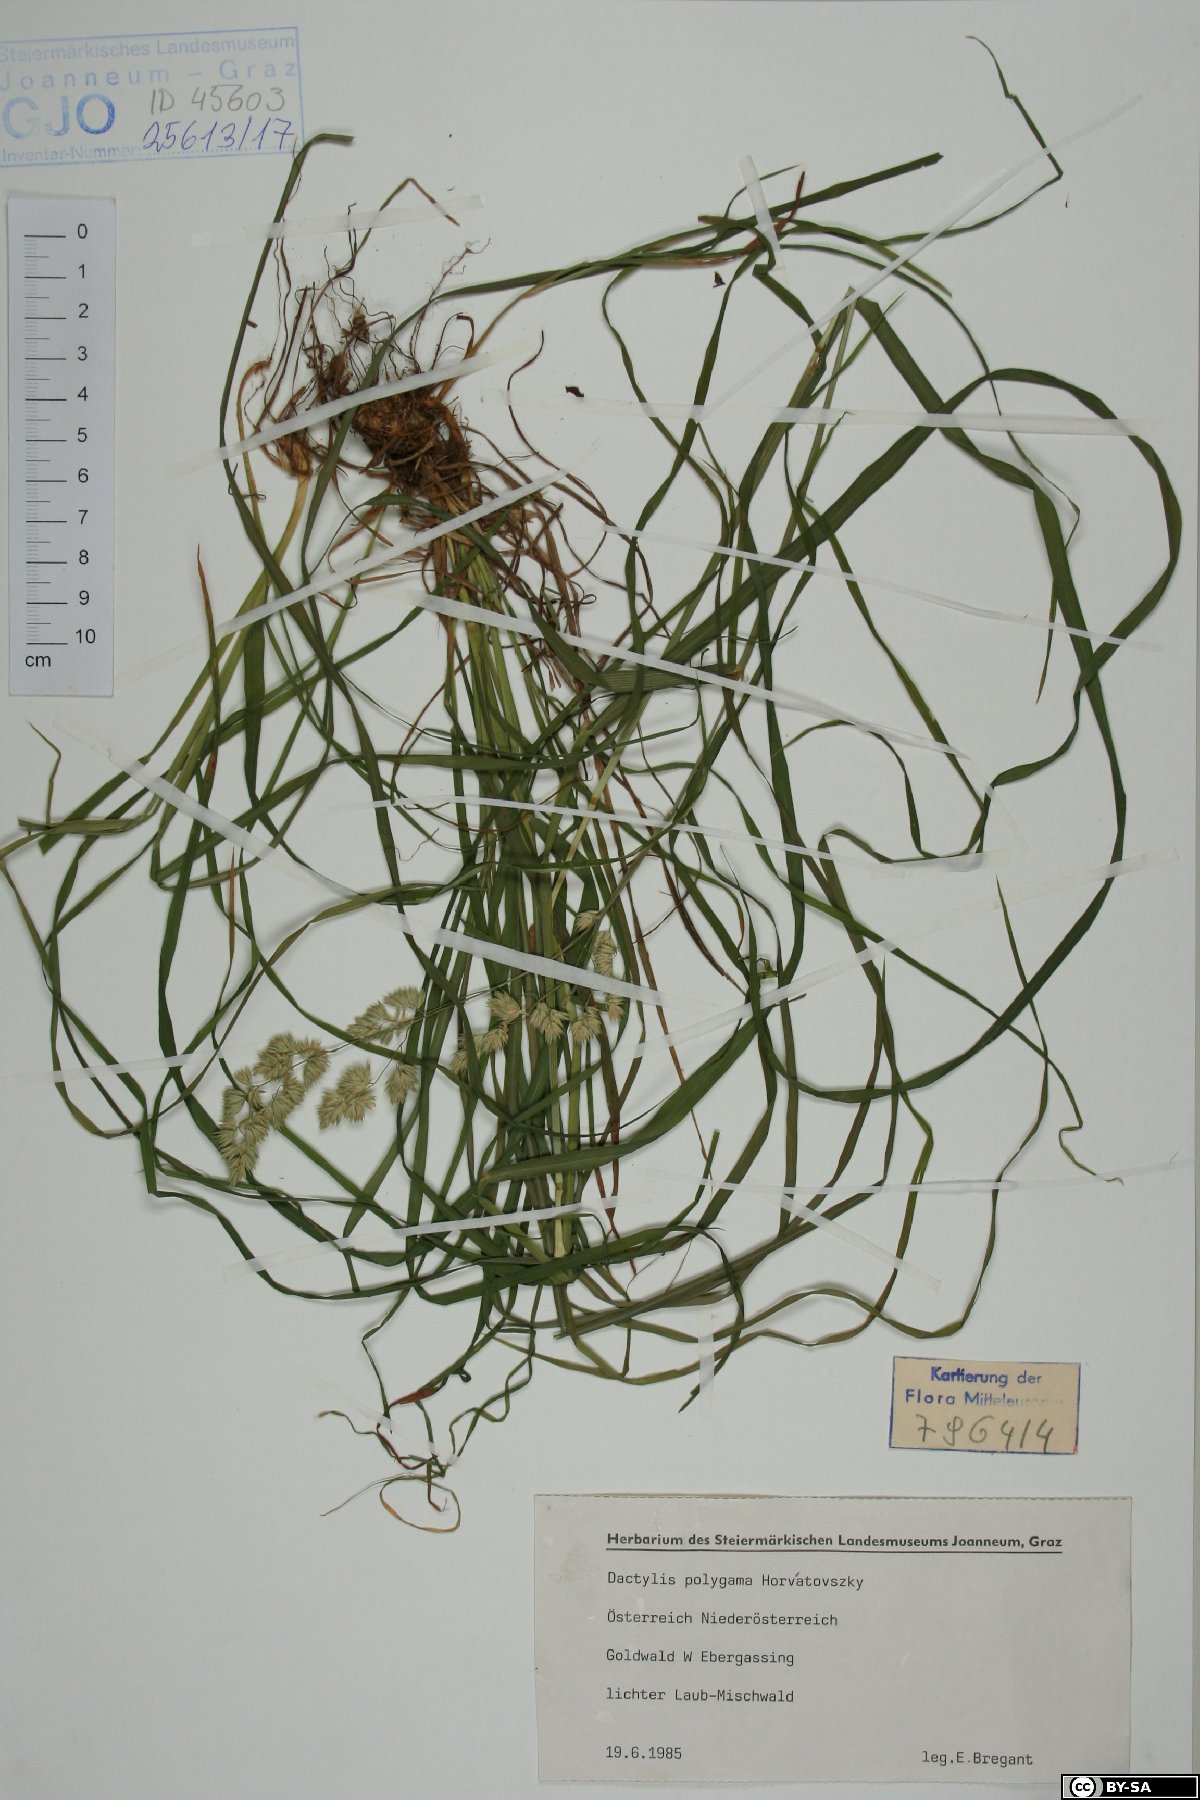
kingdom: Plantae
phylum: Tracheophyta
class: Liliopsida
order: Poales
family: Poaceae
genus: Dactylis
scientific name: Dactylis glomerata
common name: Orchardgrass
